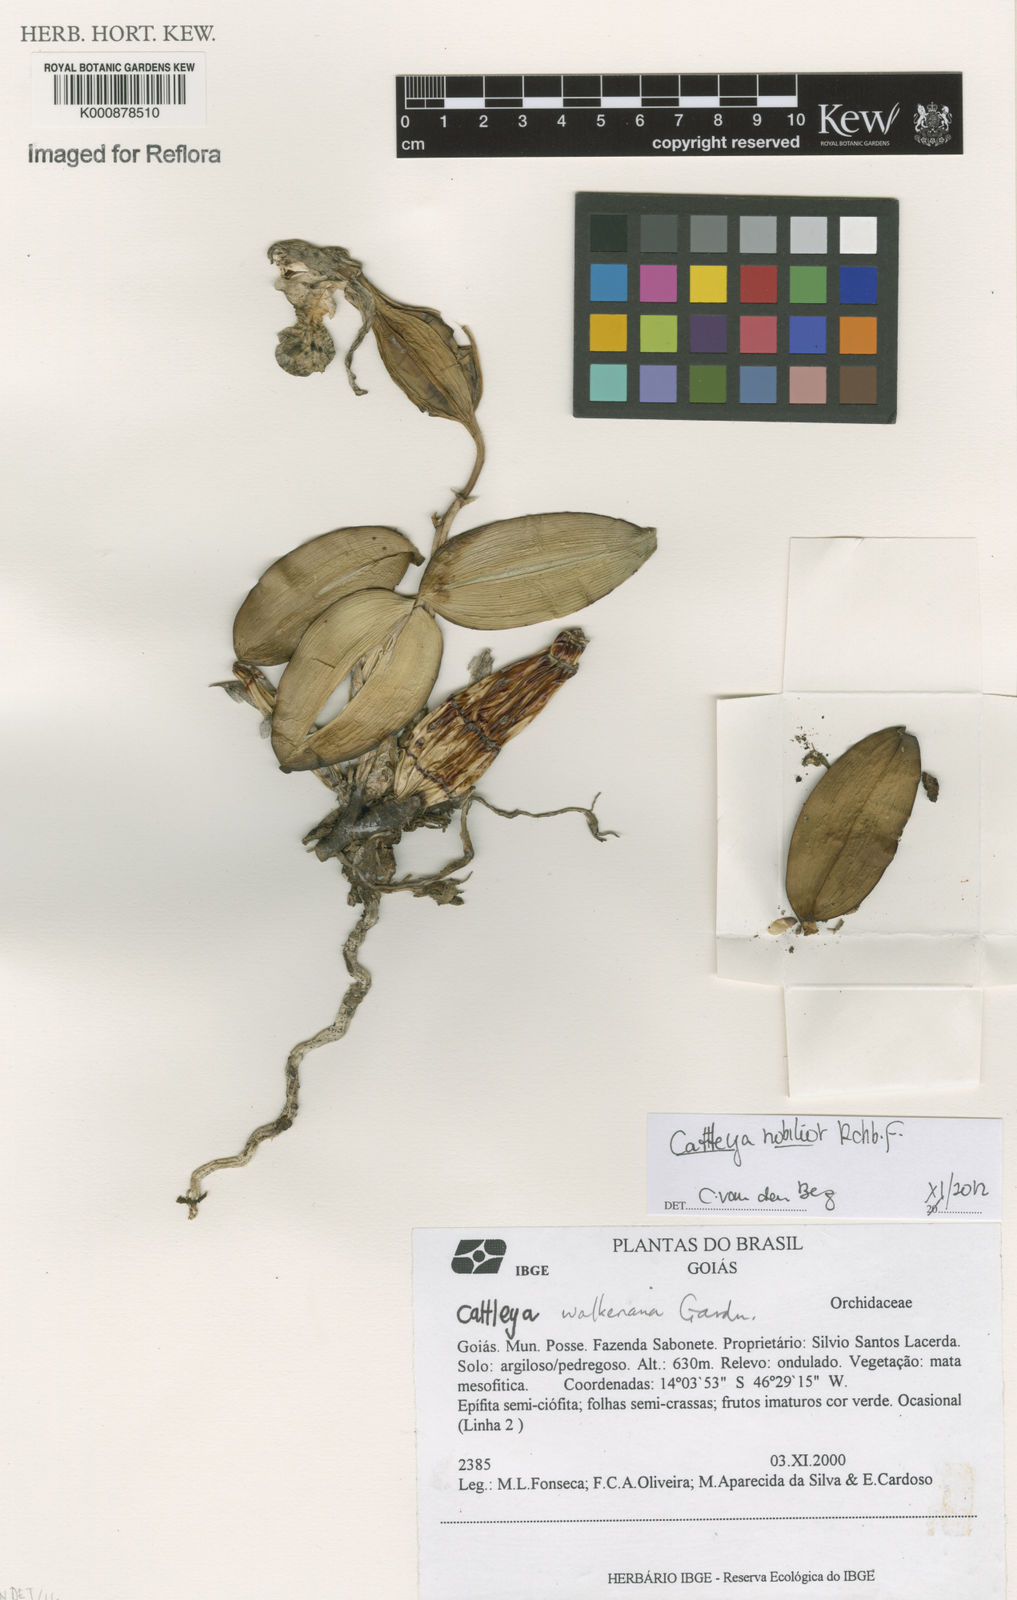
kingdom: Plantae
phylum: Tracheophyta
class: Liliopsida
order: Asparagales
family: Orchidaceae
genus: Cattleya
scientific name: Cattleya nobilior
